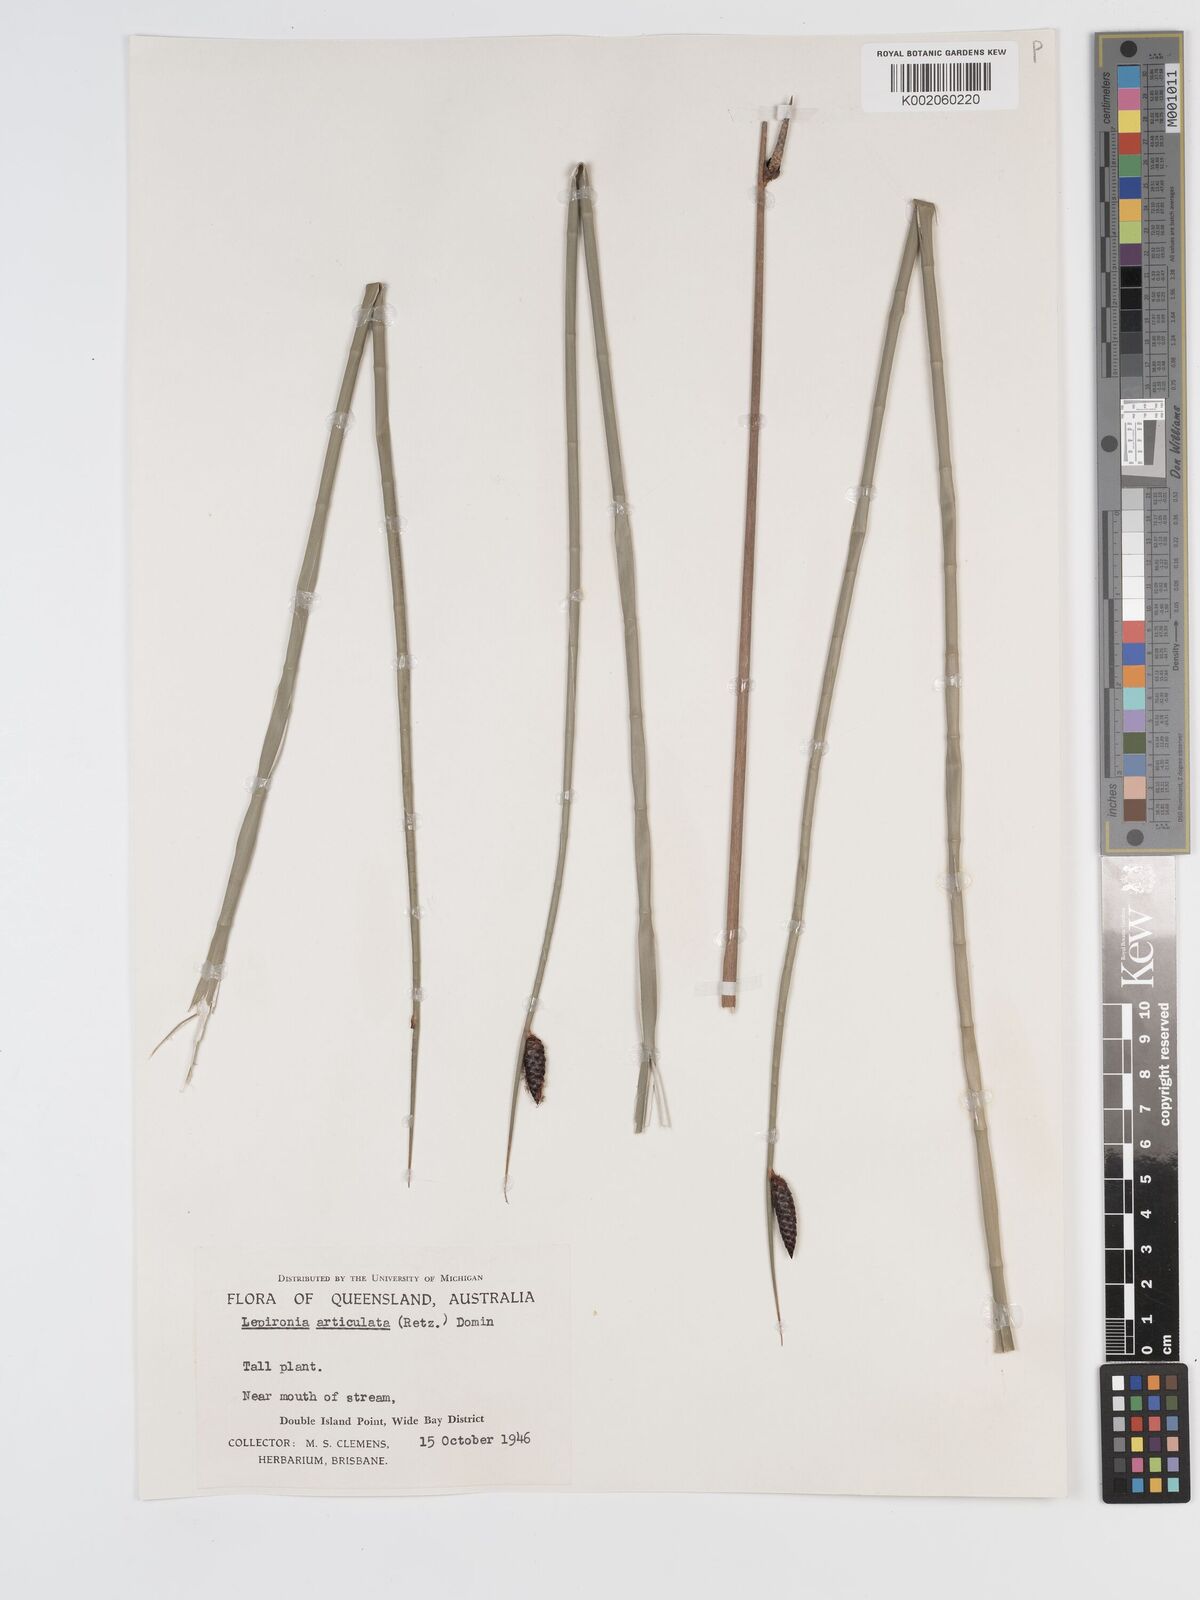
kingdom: Plantae
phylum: Tracheophyta
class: Liliopsida
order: Poales
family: Cyperaceae
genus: Lepironia
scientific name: Lepironia articulata
